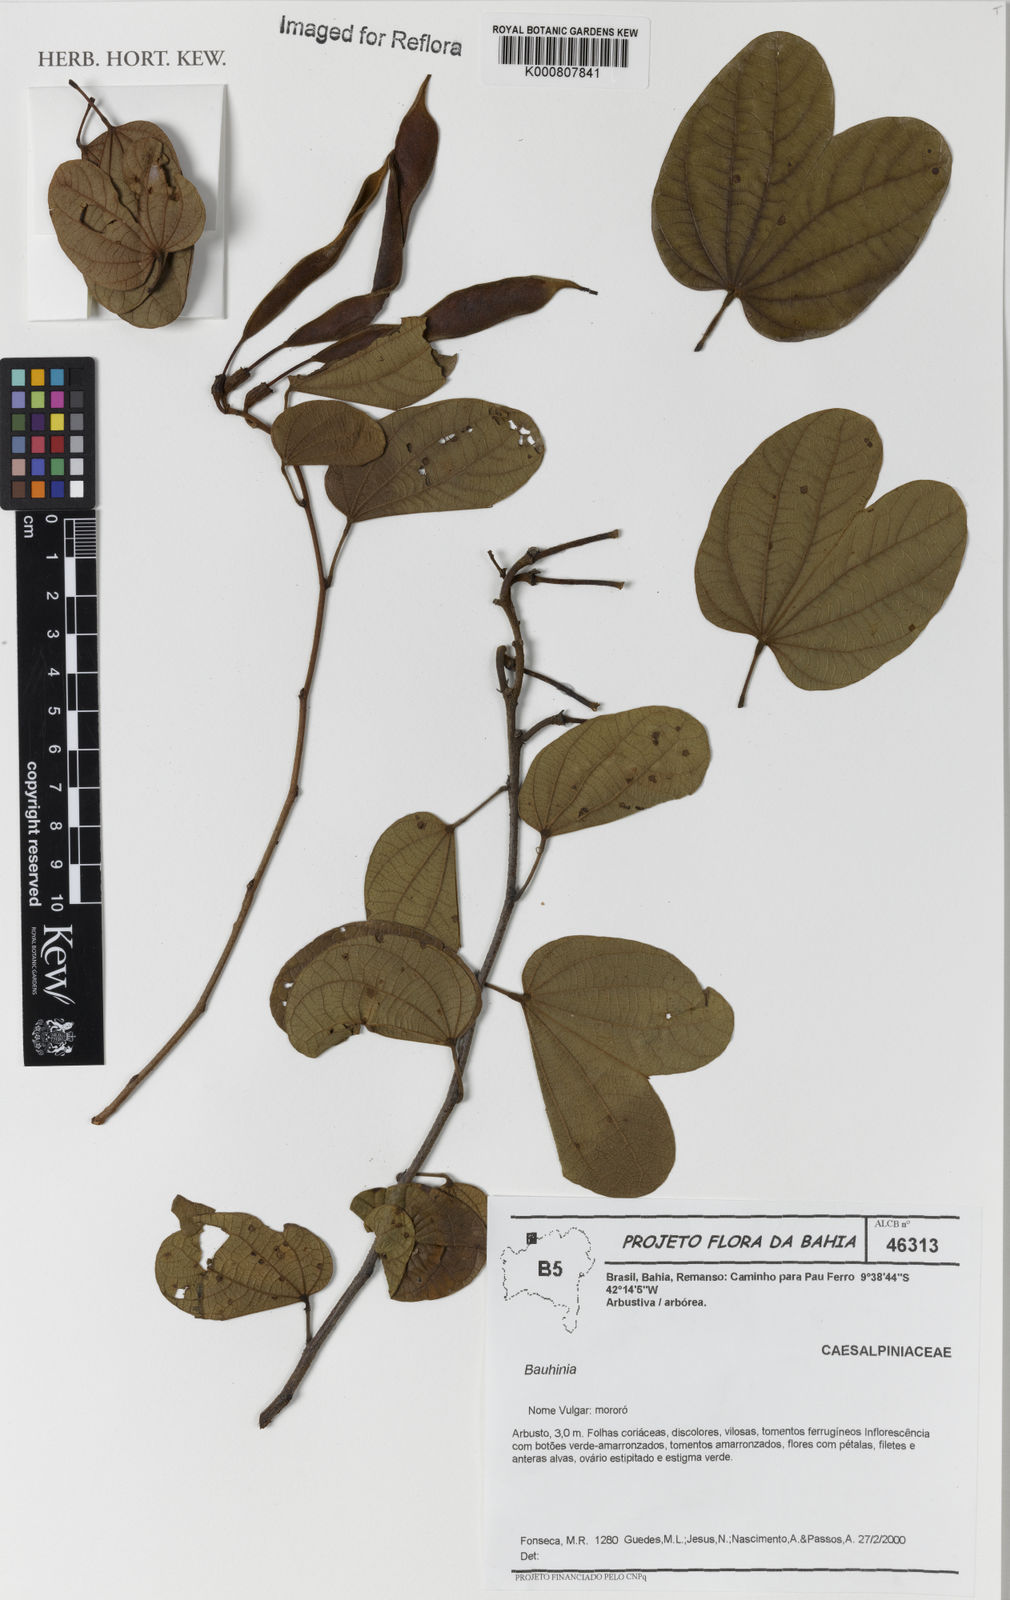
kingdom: Plantae
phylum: Tracheophyta
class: Magnoliopsida
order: Fabales
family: Fabaceae
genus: Bauhinia
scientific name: Bauhinia
